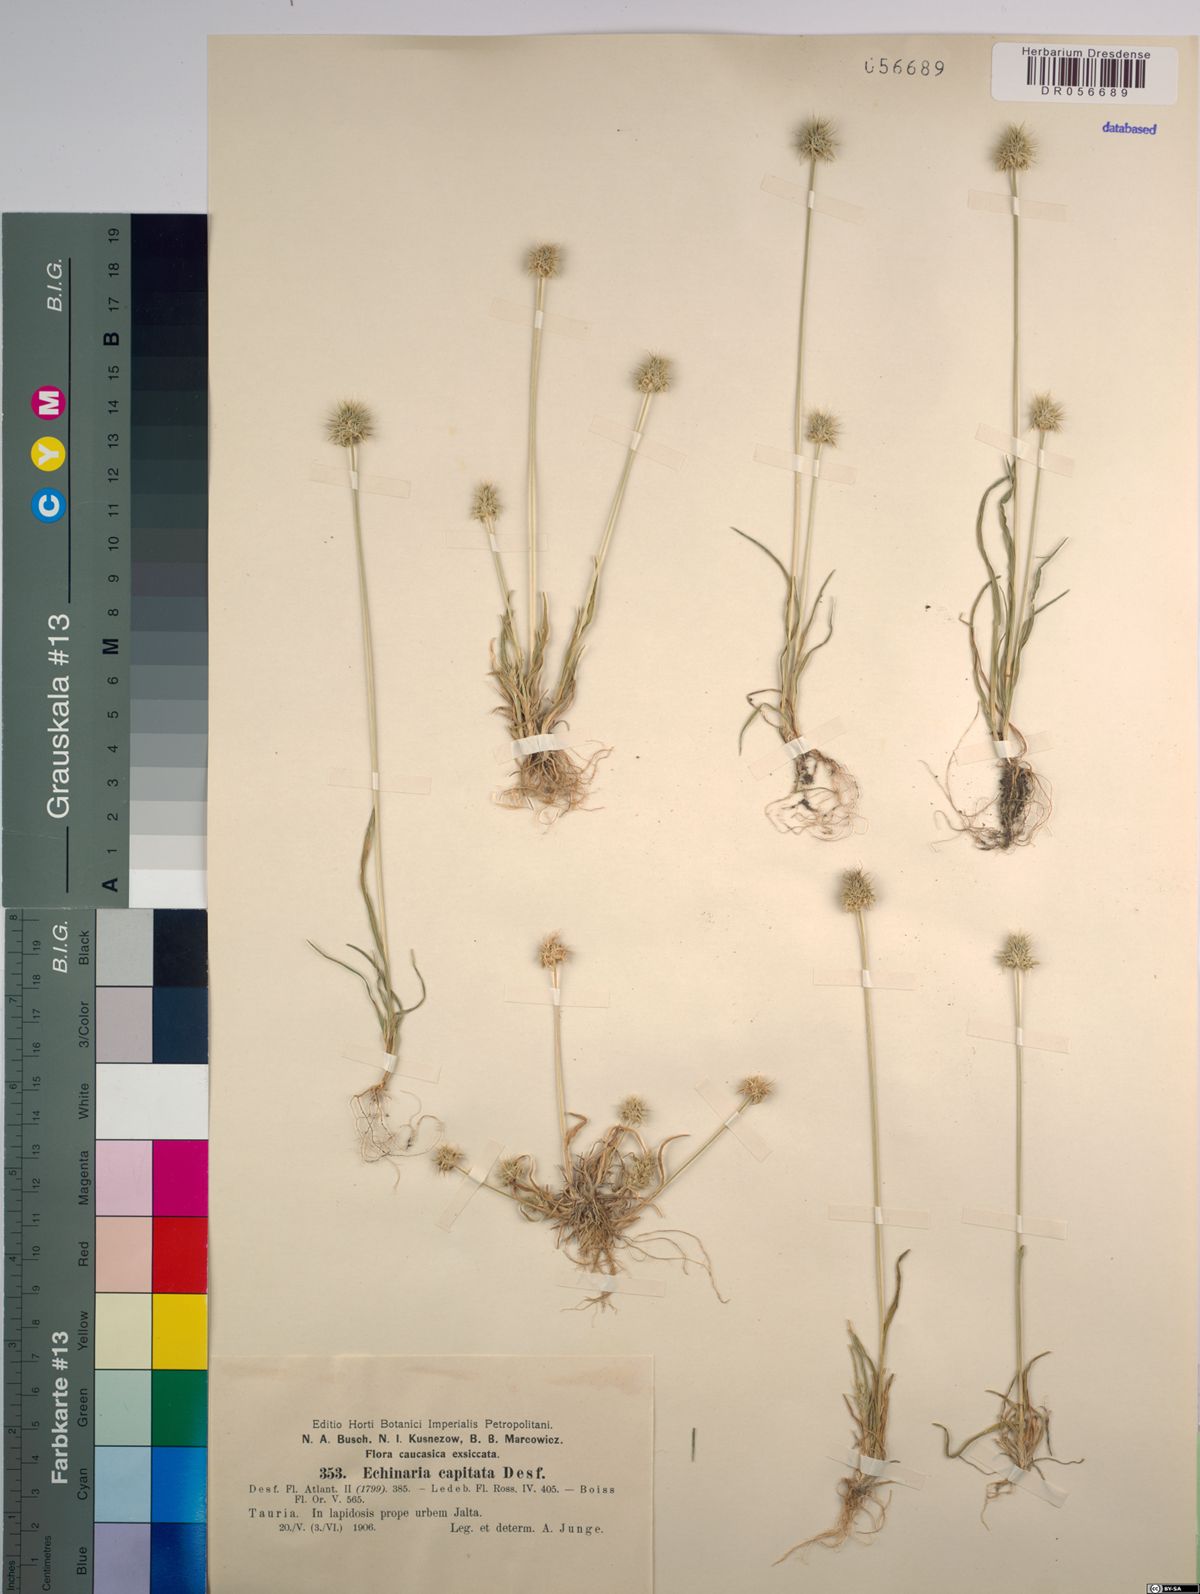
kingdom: Plantae
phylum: Tracheophyta
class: Liliopsida
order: Poales
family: Poaceae
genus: Echinaria
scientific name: Echinaria capitata
